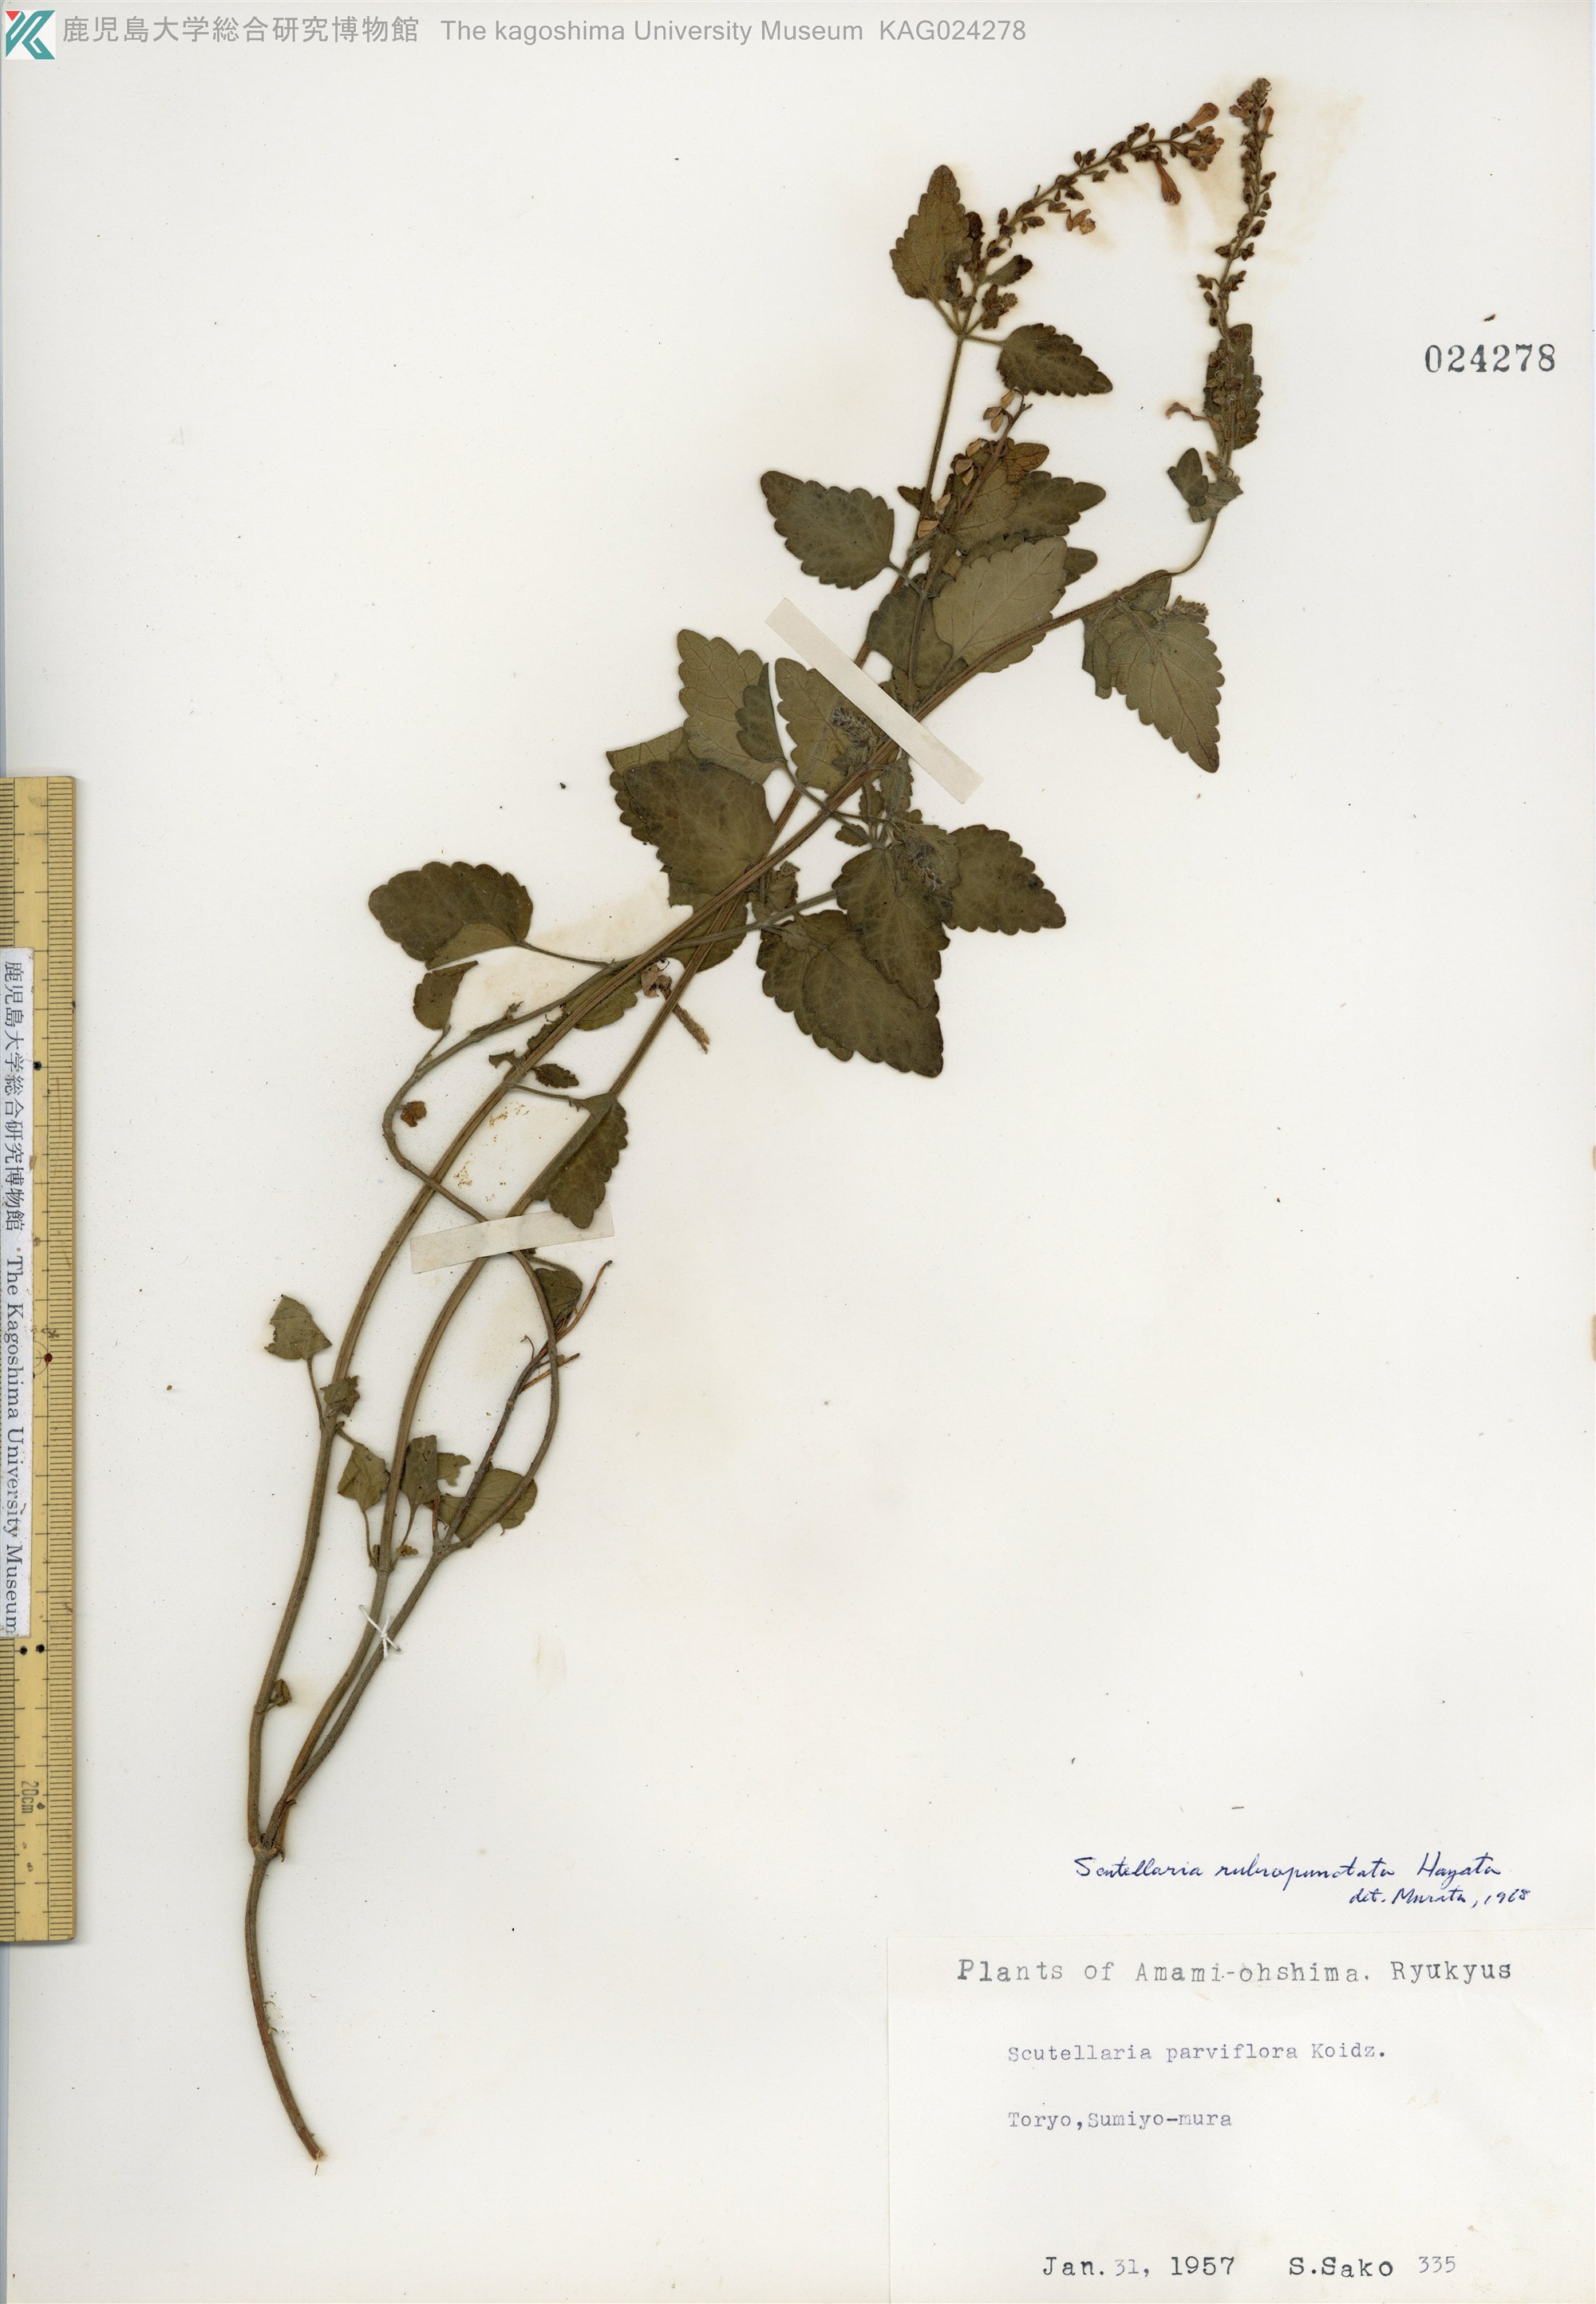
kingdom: Plantae
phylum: Tracheophyta
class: Magnoliopsida
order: Lamiales
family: Lamiaceae
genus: Scutellaria
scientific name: Scutellaria rubropunctata
